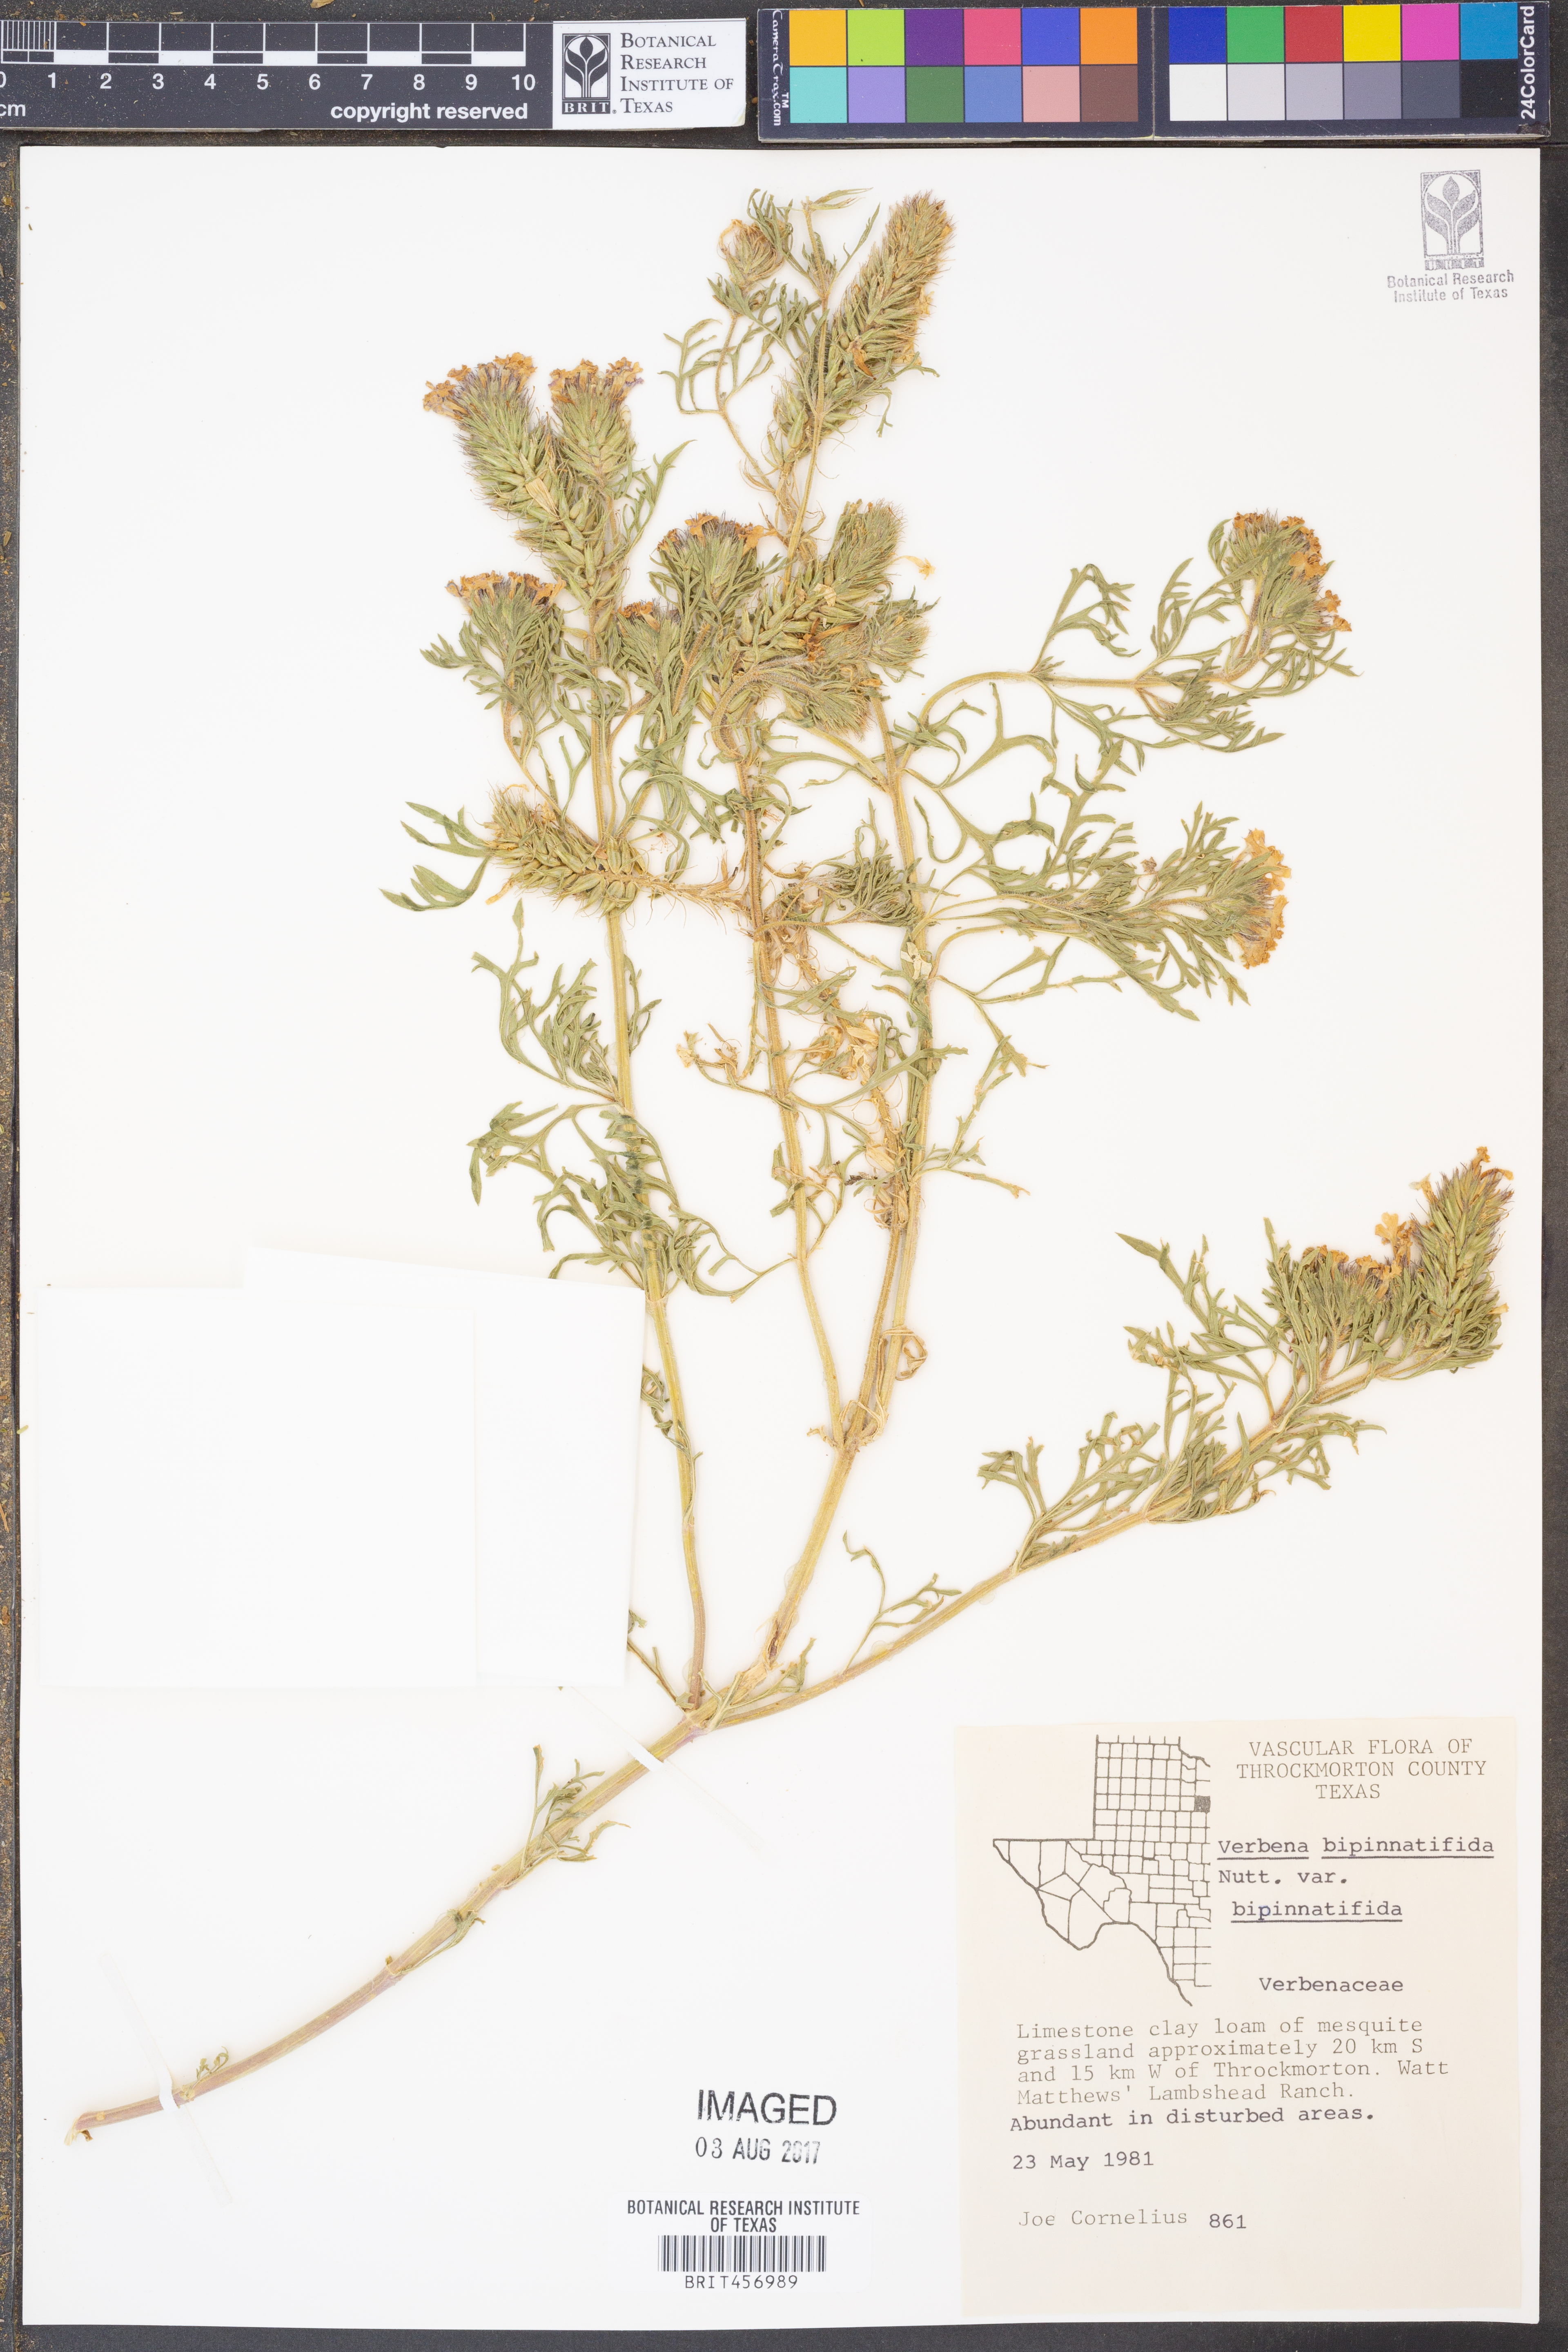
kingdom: Plantae
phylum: Tracheophyta
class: Magnoliopsida
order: Lamiales
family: Verbenaceae
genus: Verbena
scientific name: Verbena bipinnatifida
